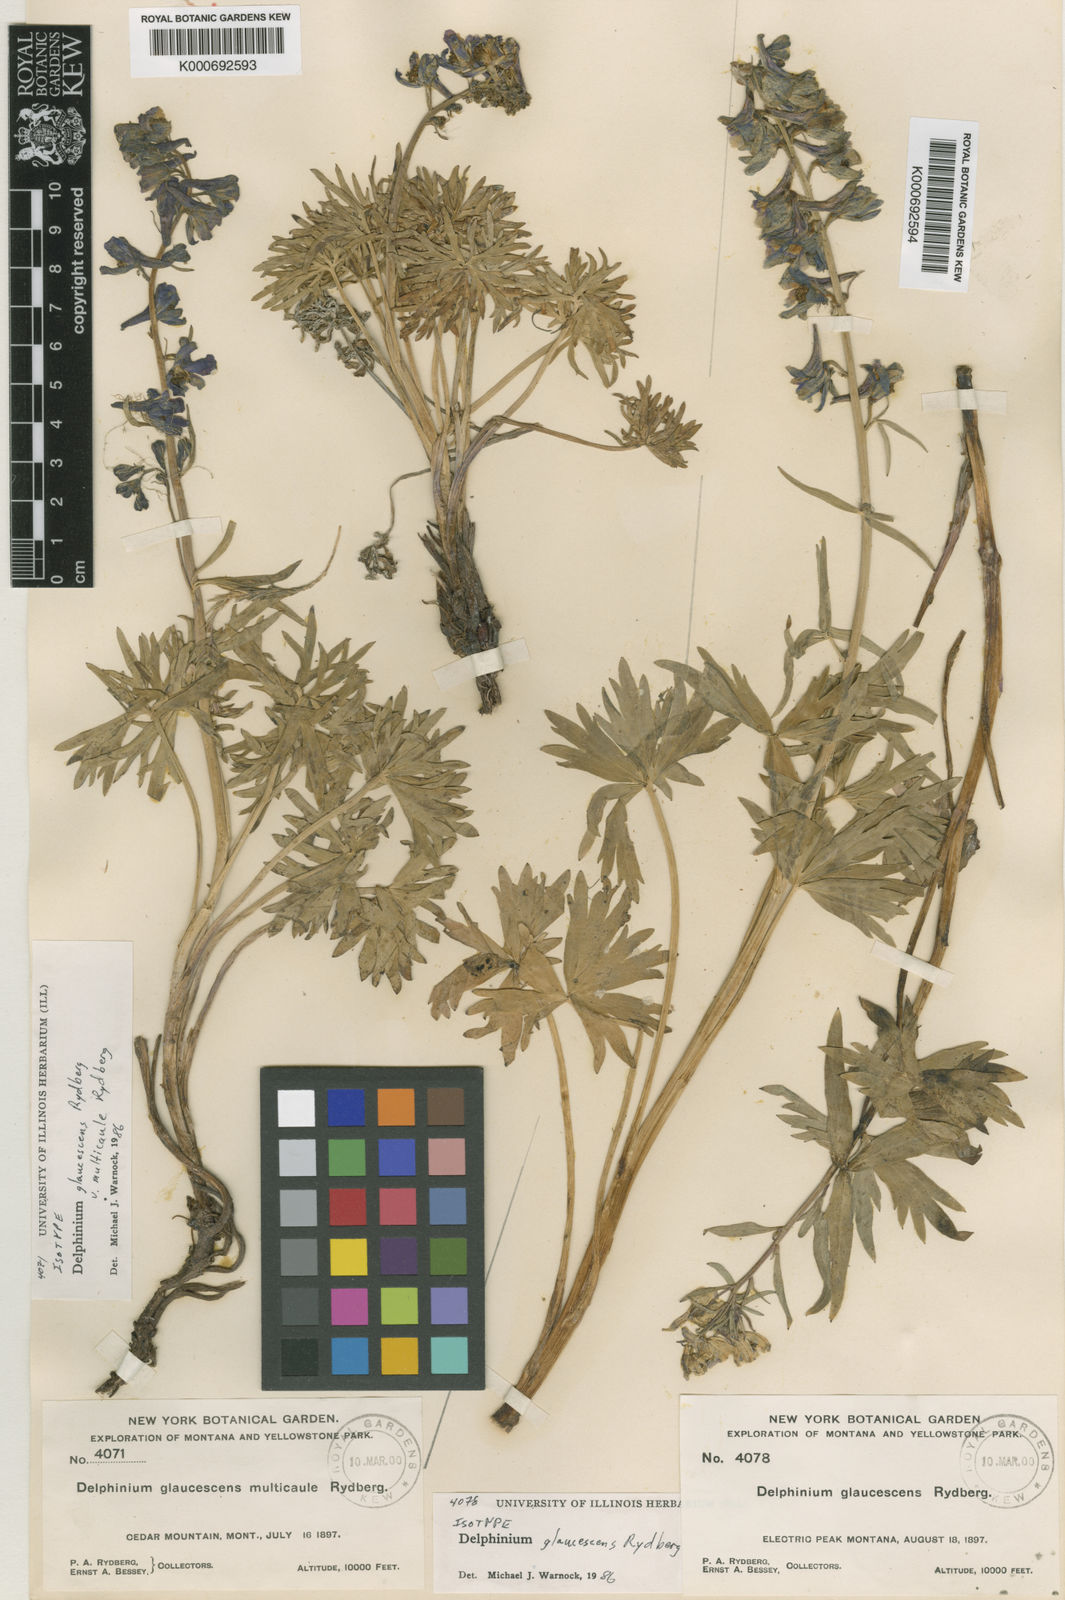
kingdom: Plantae
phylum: Tracheophyta
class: Magnoliopsida
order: Ranunculales
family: Ranunculaceae
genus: Delphinium
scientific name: Delphinium glaucescens
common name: Glaucous larkspur
